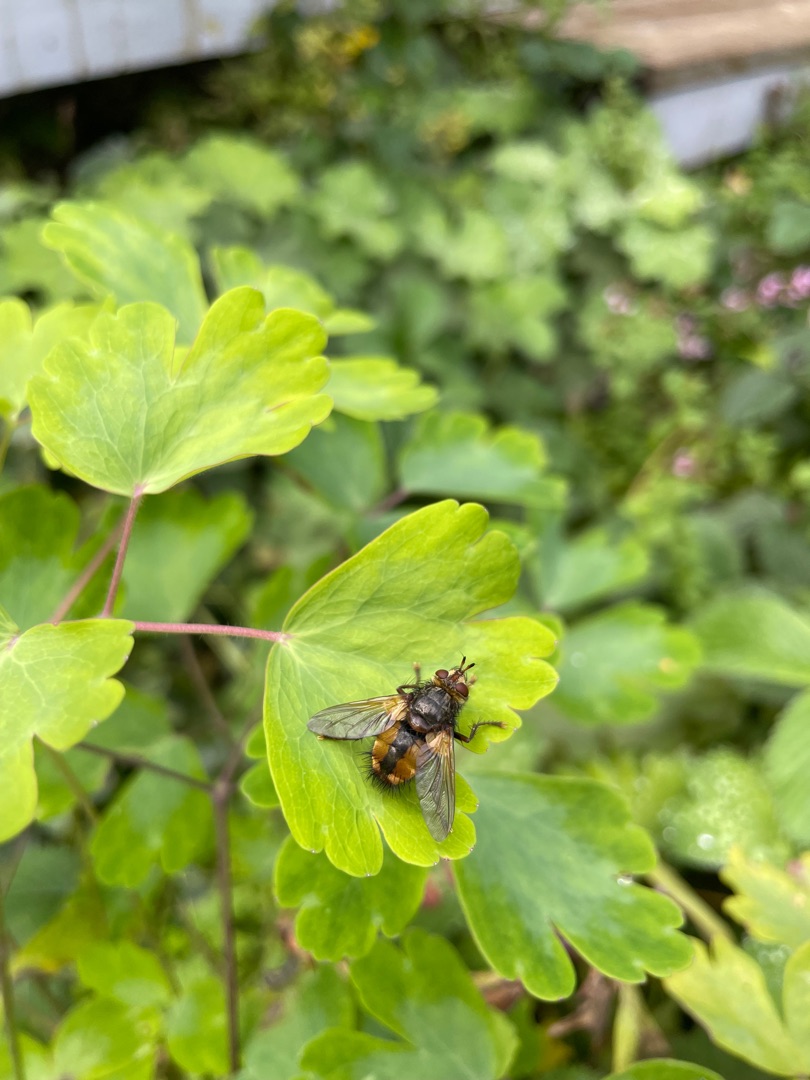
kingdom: Animalia
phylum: Arthropoda
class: Insecta
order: Diptera
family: Tachinidae
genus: Tachina
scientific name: Tachina fera
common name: Mellemfluen oskar
